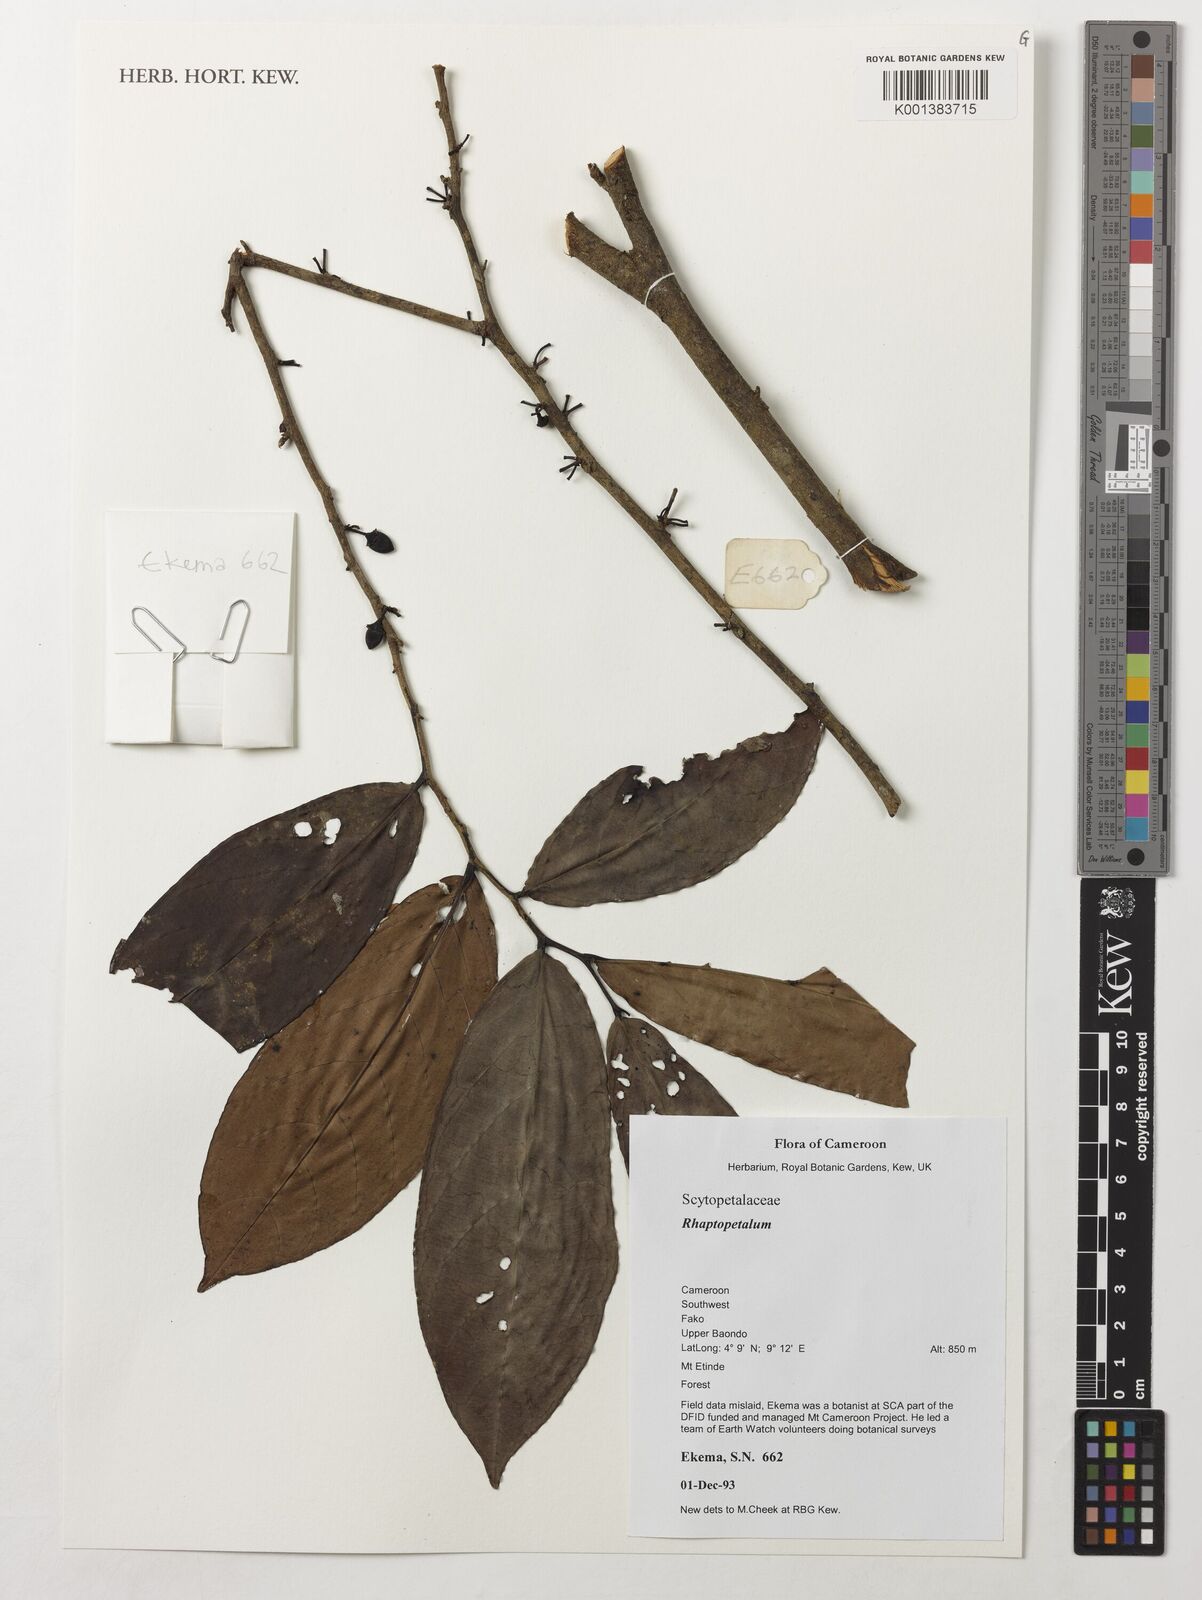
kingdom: Plantae
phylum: Tracheophyta
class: Magnoliopsida
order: Ericales
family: Lecythidaceae
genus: Rhaptopetalum
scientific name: Rhaptopetalum
